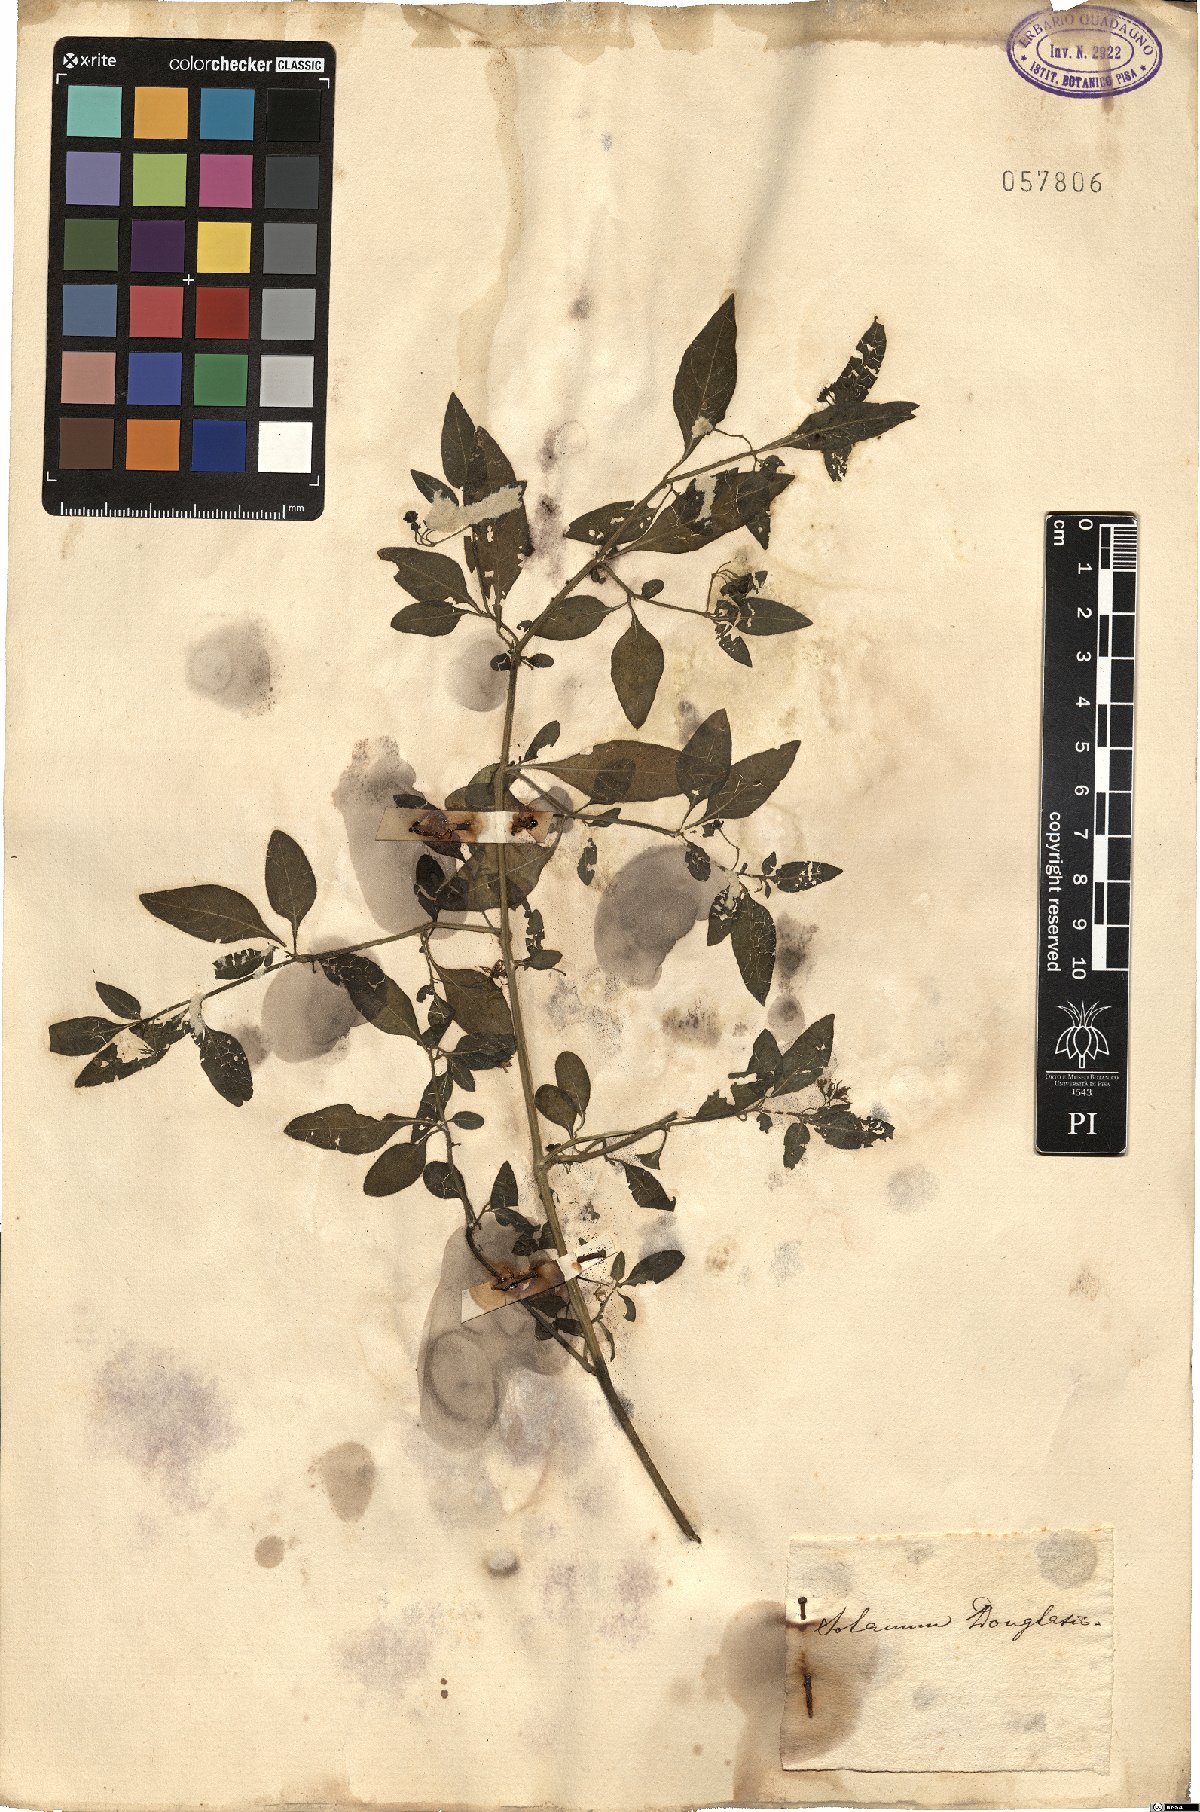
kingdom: Plantae
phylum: Tracheophyta
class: Magnoliopsida
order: Solanales
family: Solanaceae
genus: Solanum
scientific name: Solanum douglasii
